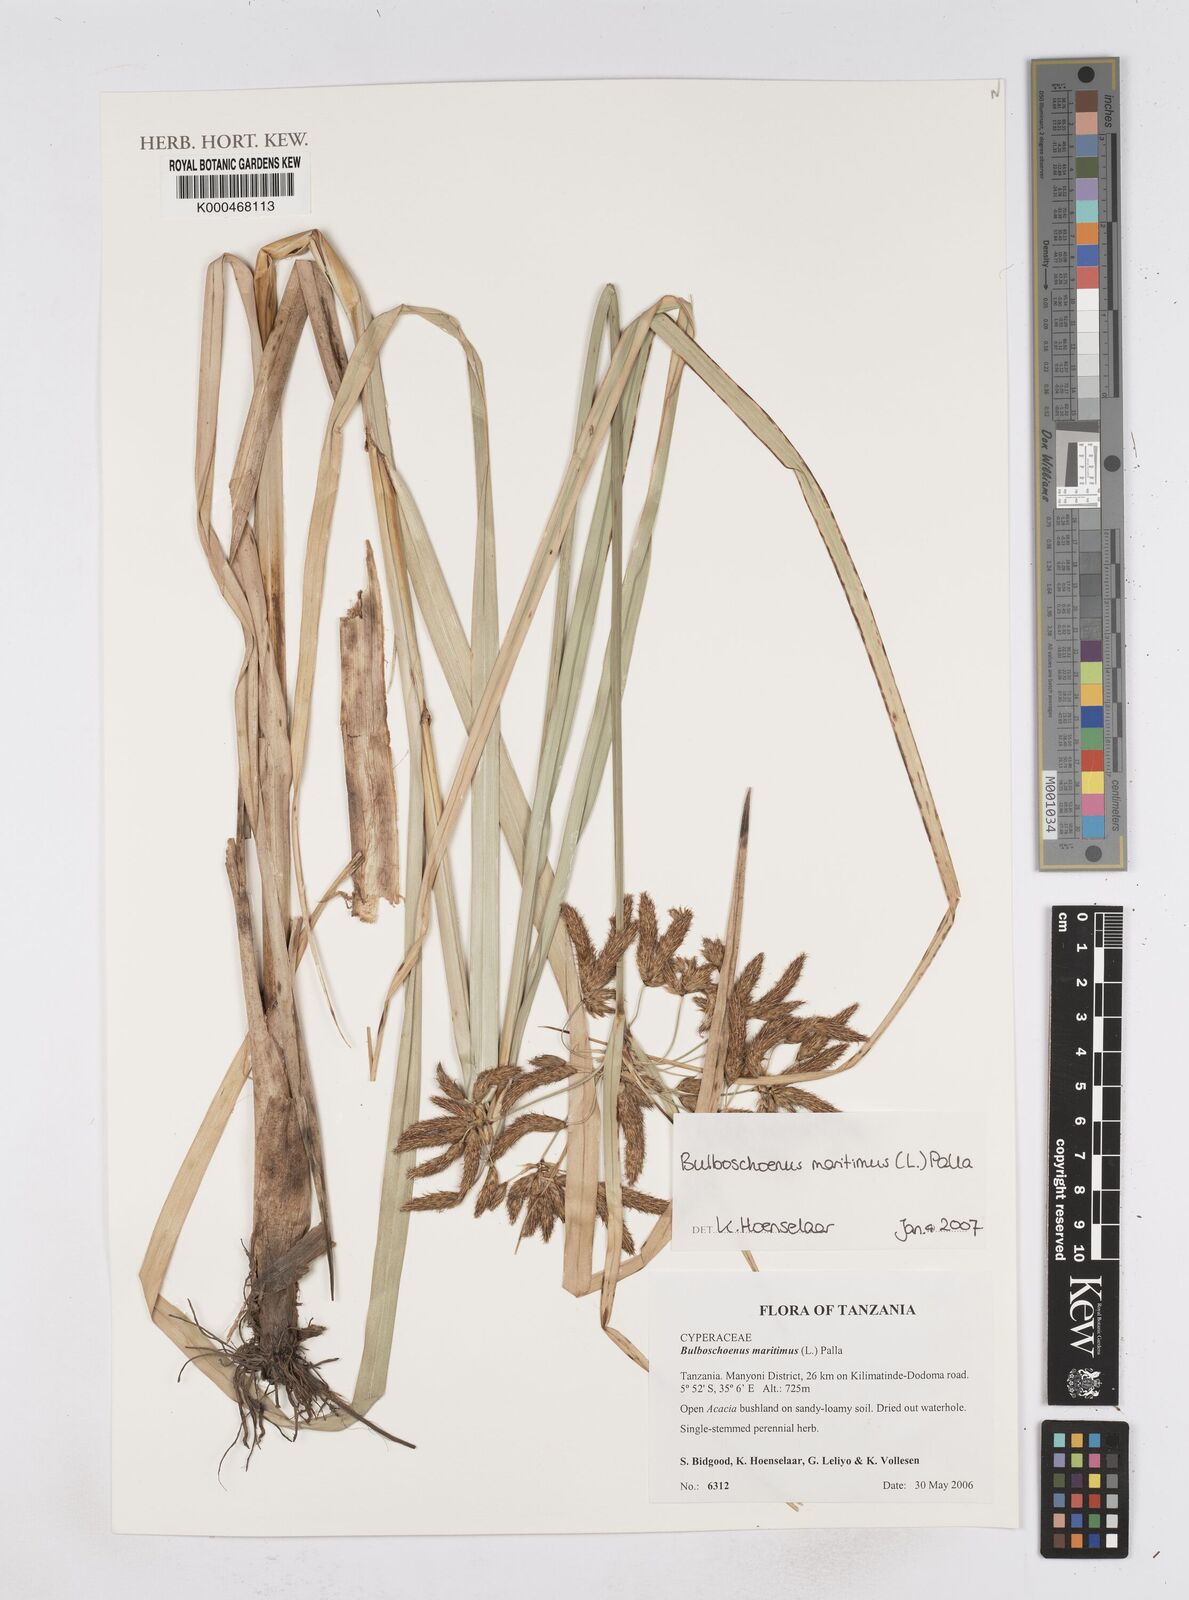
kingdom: Plantae
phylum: Tracheophyta
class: Liliopsida
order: Poales
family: Cyperaceae
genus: Bolboschoenus
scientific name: Bolboschoenus maritimus
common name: Sea club-rush
